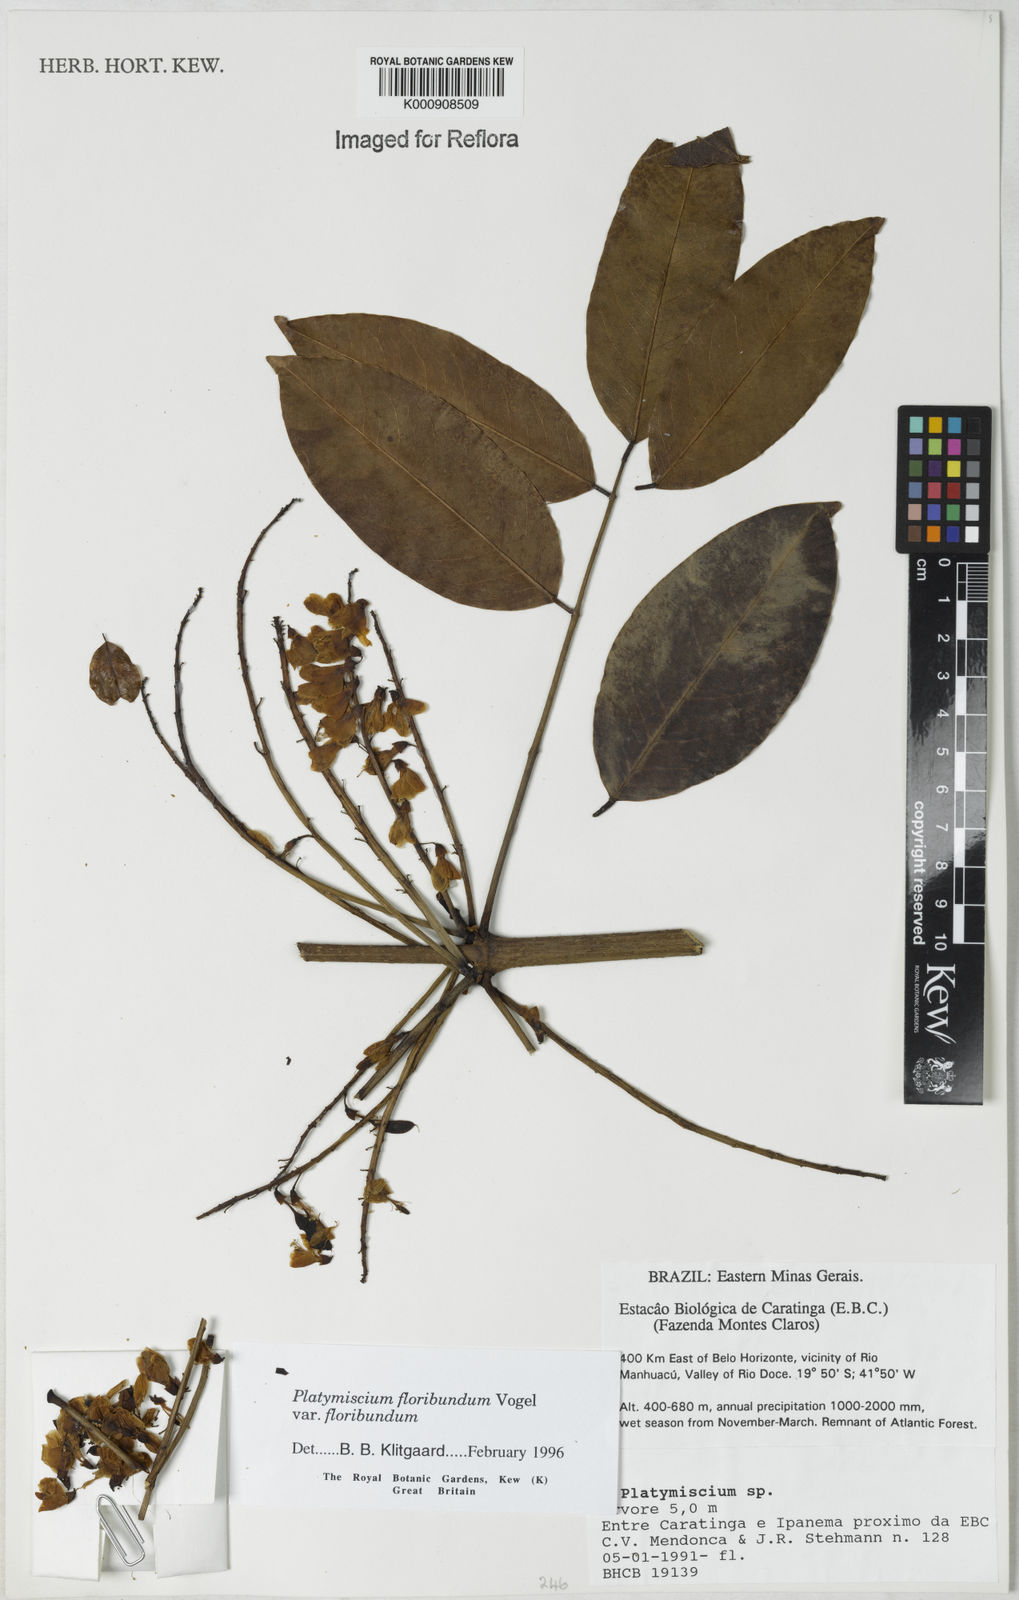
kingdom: Plantae
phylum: Tracheophyta
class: Magnoliopsida
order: Fabales
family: Fabaceae
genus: Platymiscium
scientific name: Platymiscium floribundum
